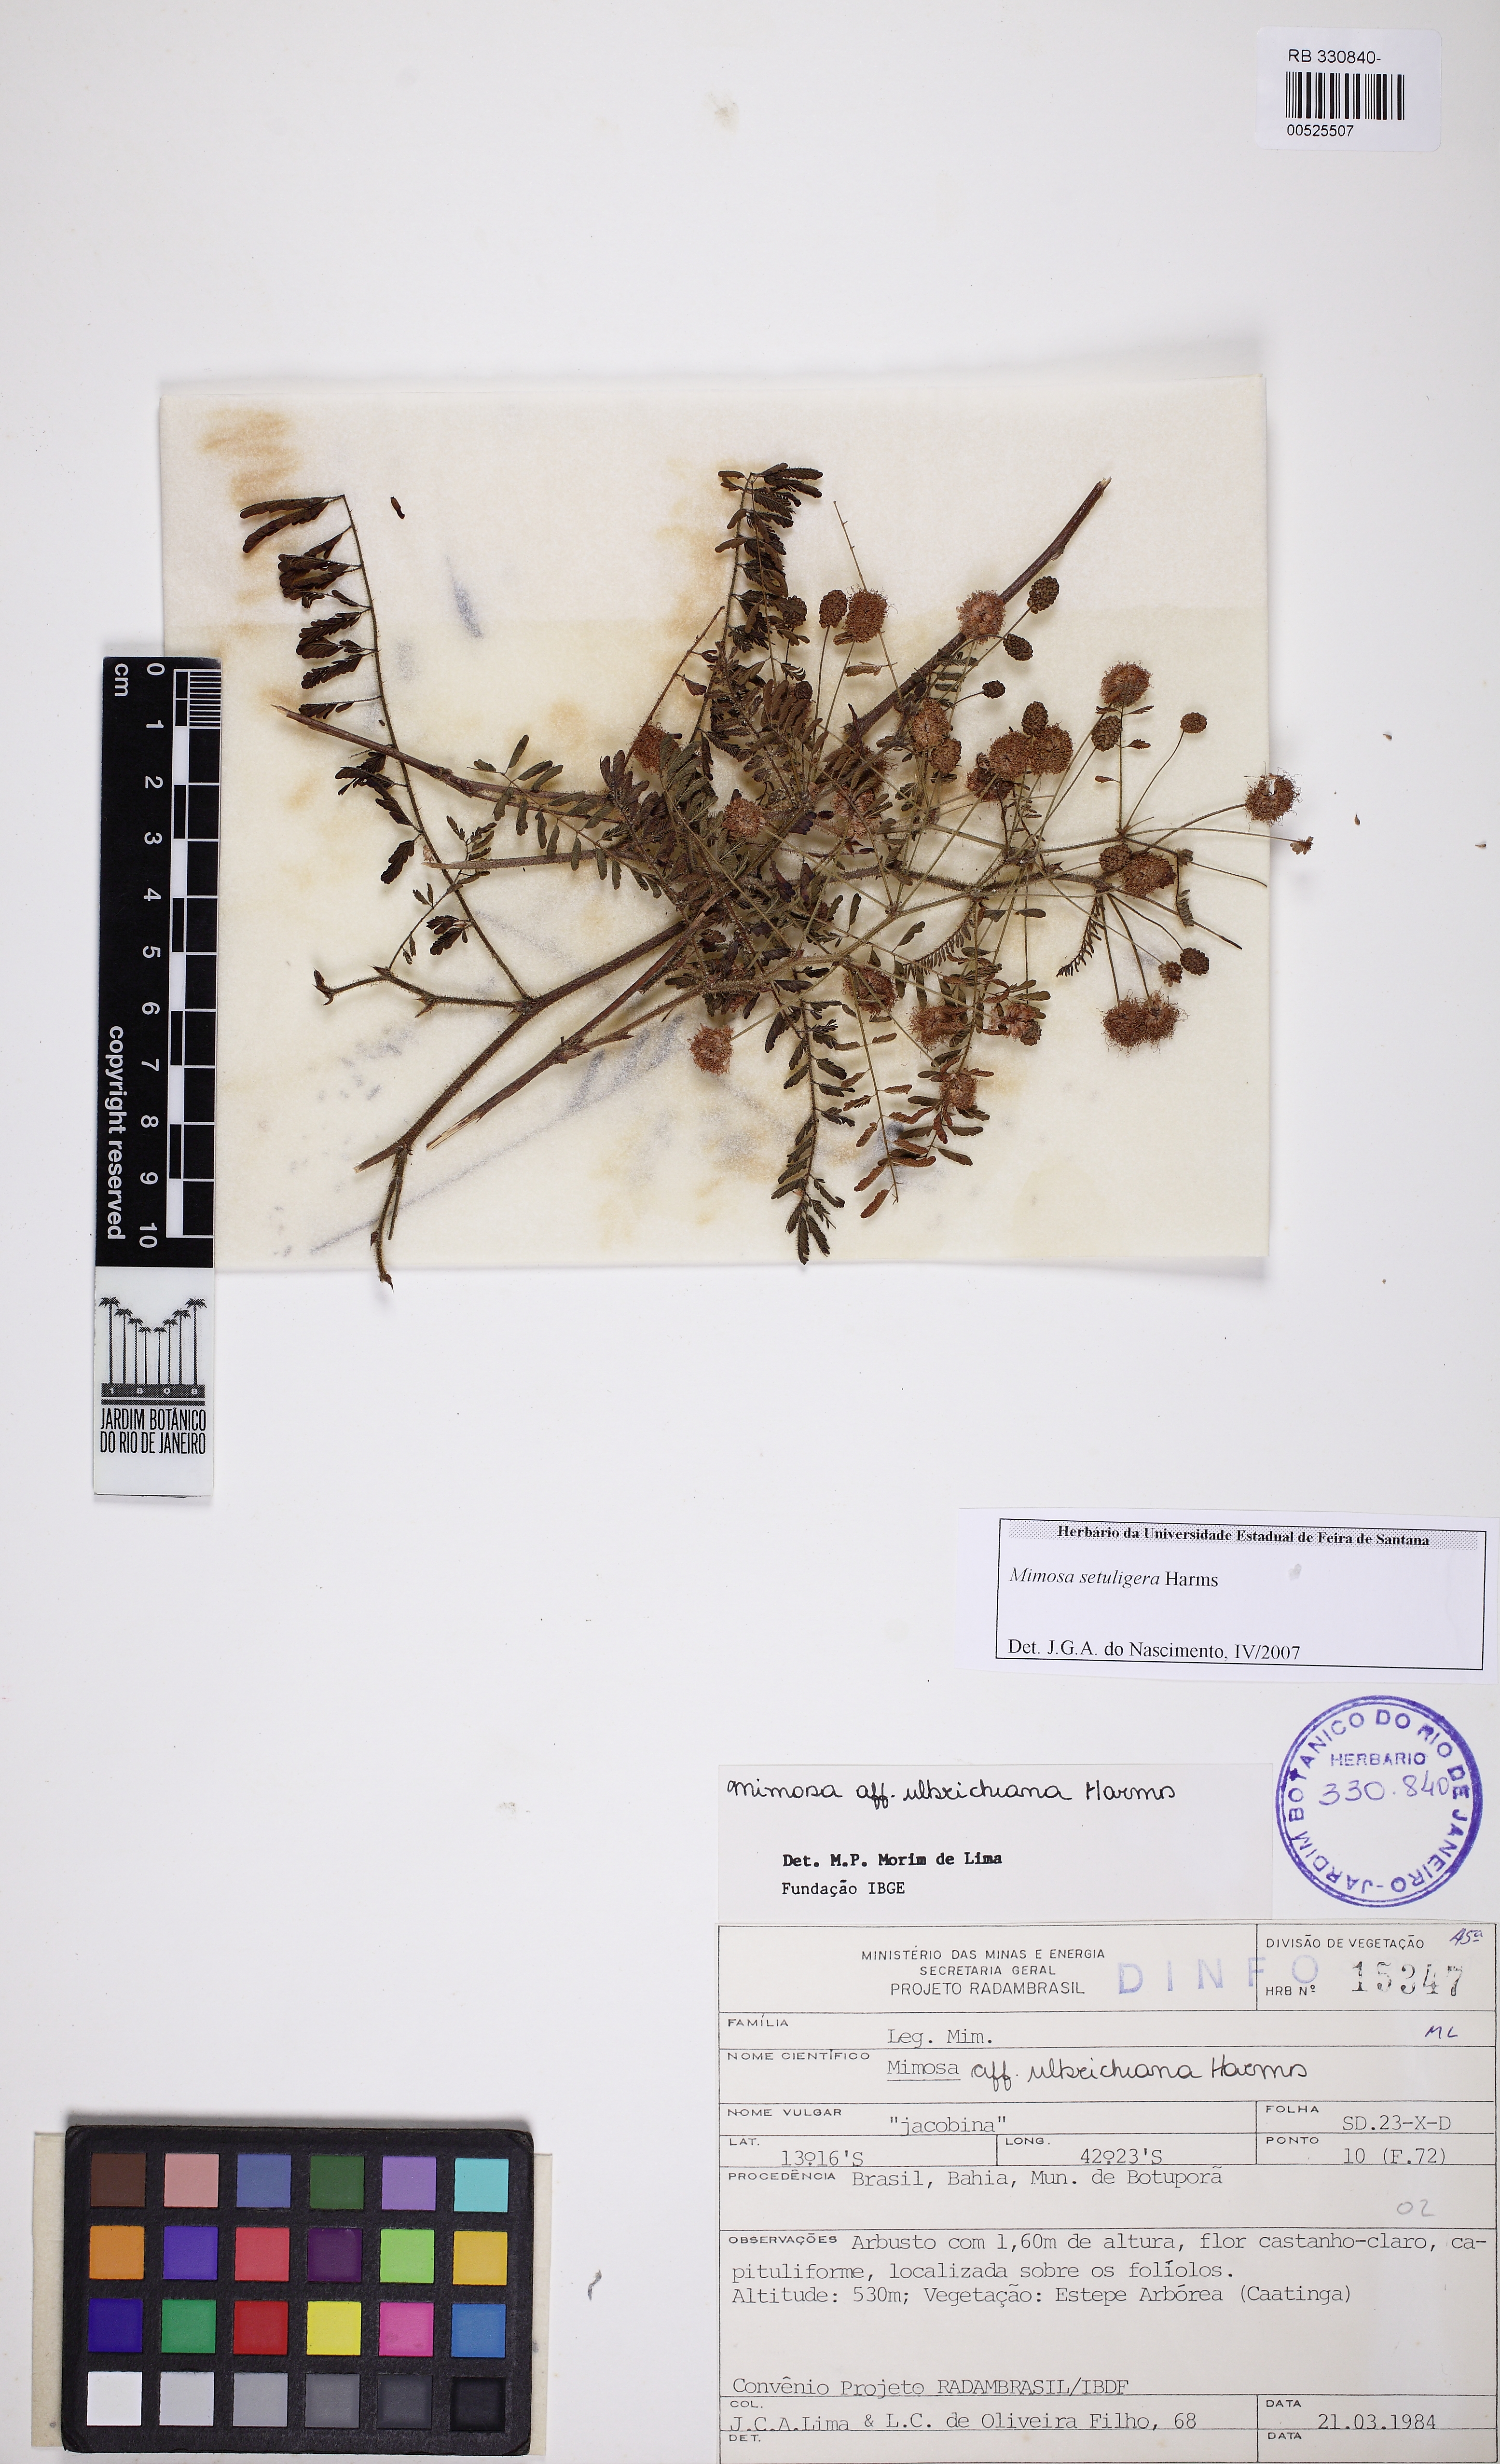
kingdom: Plantae
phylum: Tracheophyta
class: Magnoliopsida
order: Fabales
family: Fabaceae
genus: Mimosa
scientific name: Mimosa setuligera
